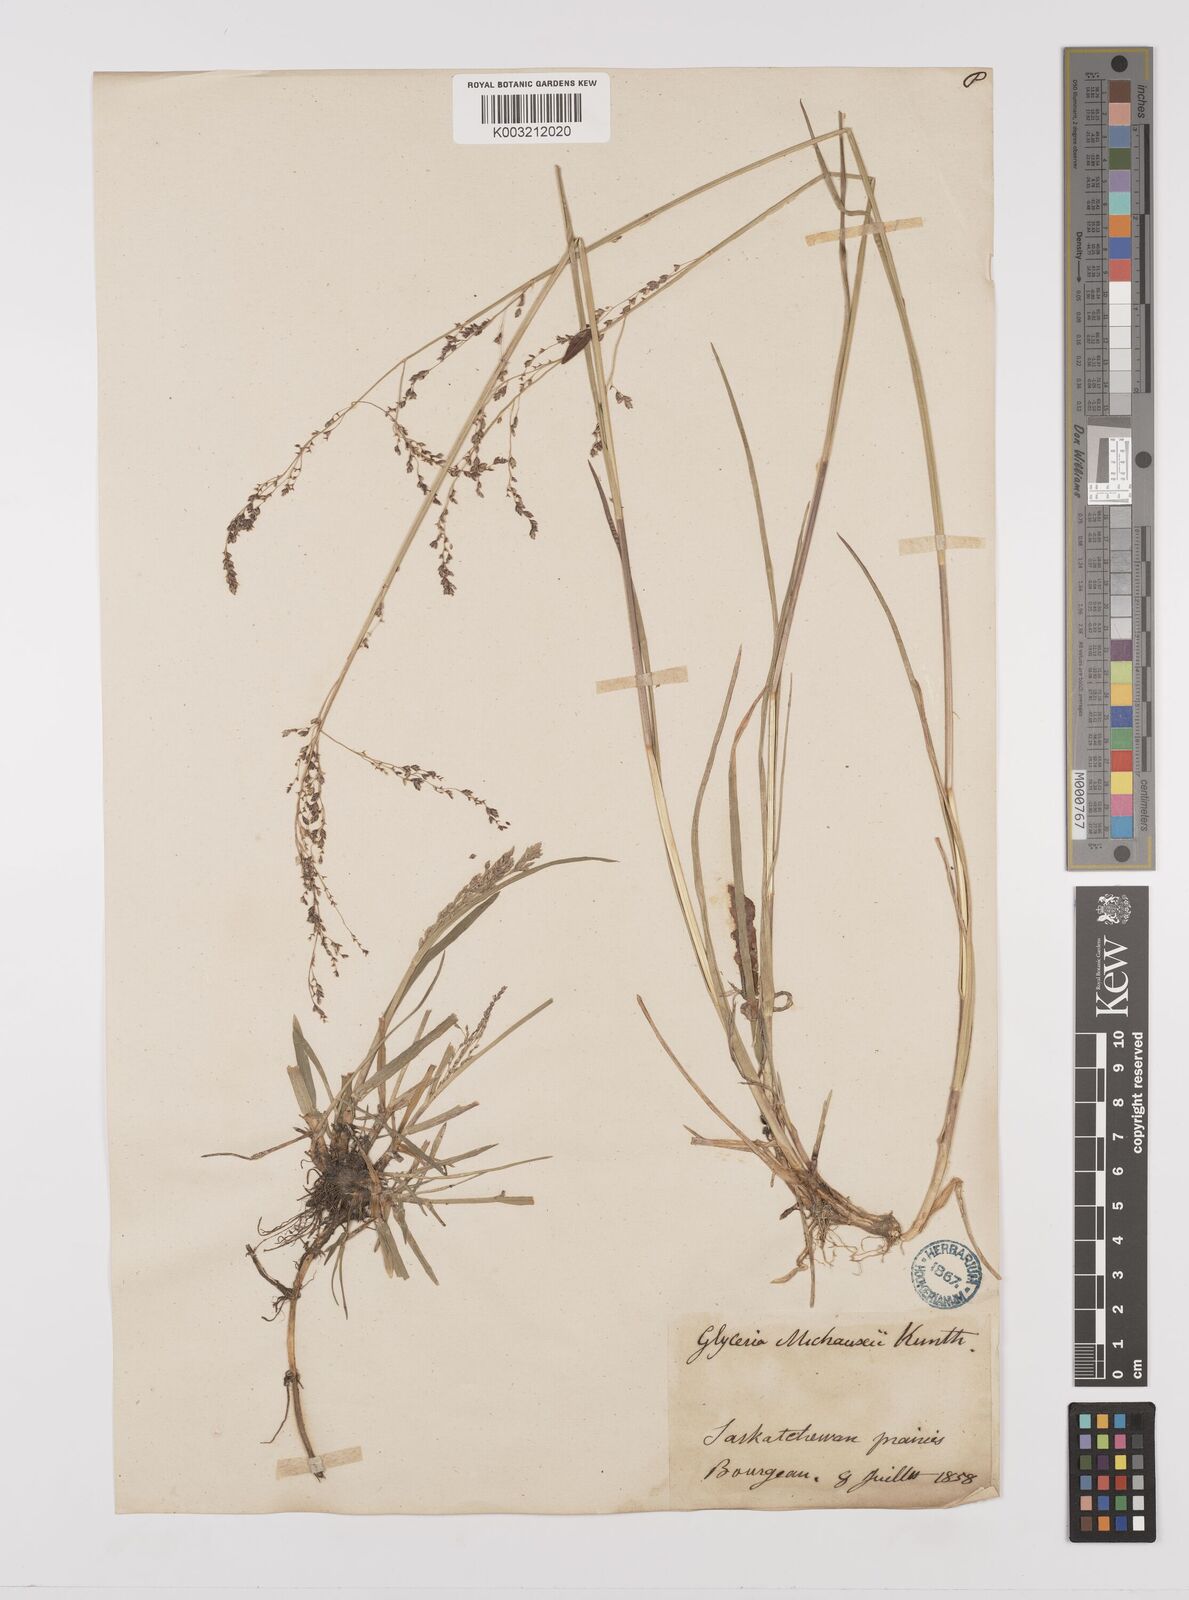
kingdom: Plantae
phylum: Tracheophyta
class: Liliopsida
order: Poales
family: Poaceae
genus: Glyceria
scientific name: Glyceria striata
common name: Fowl manna grass
